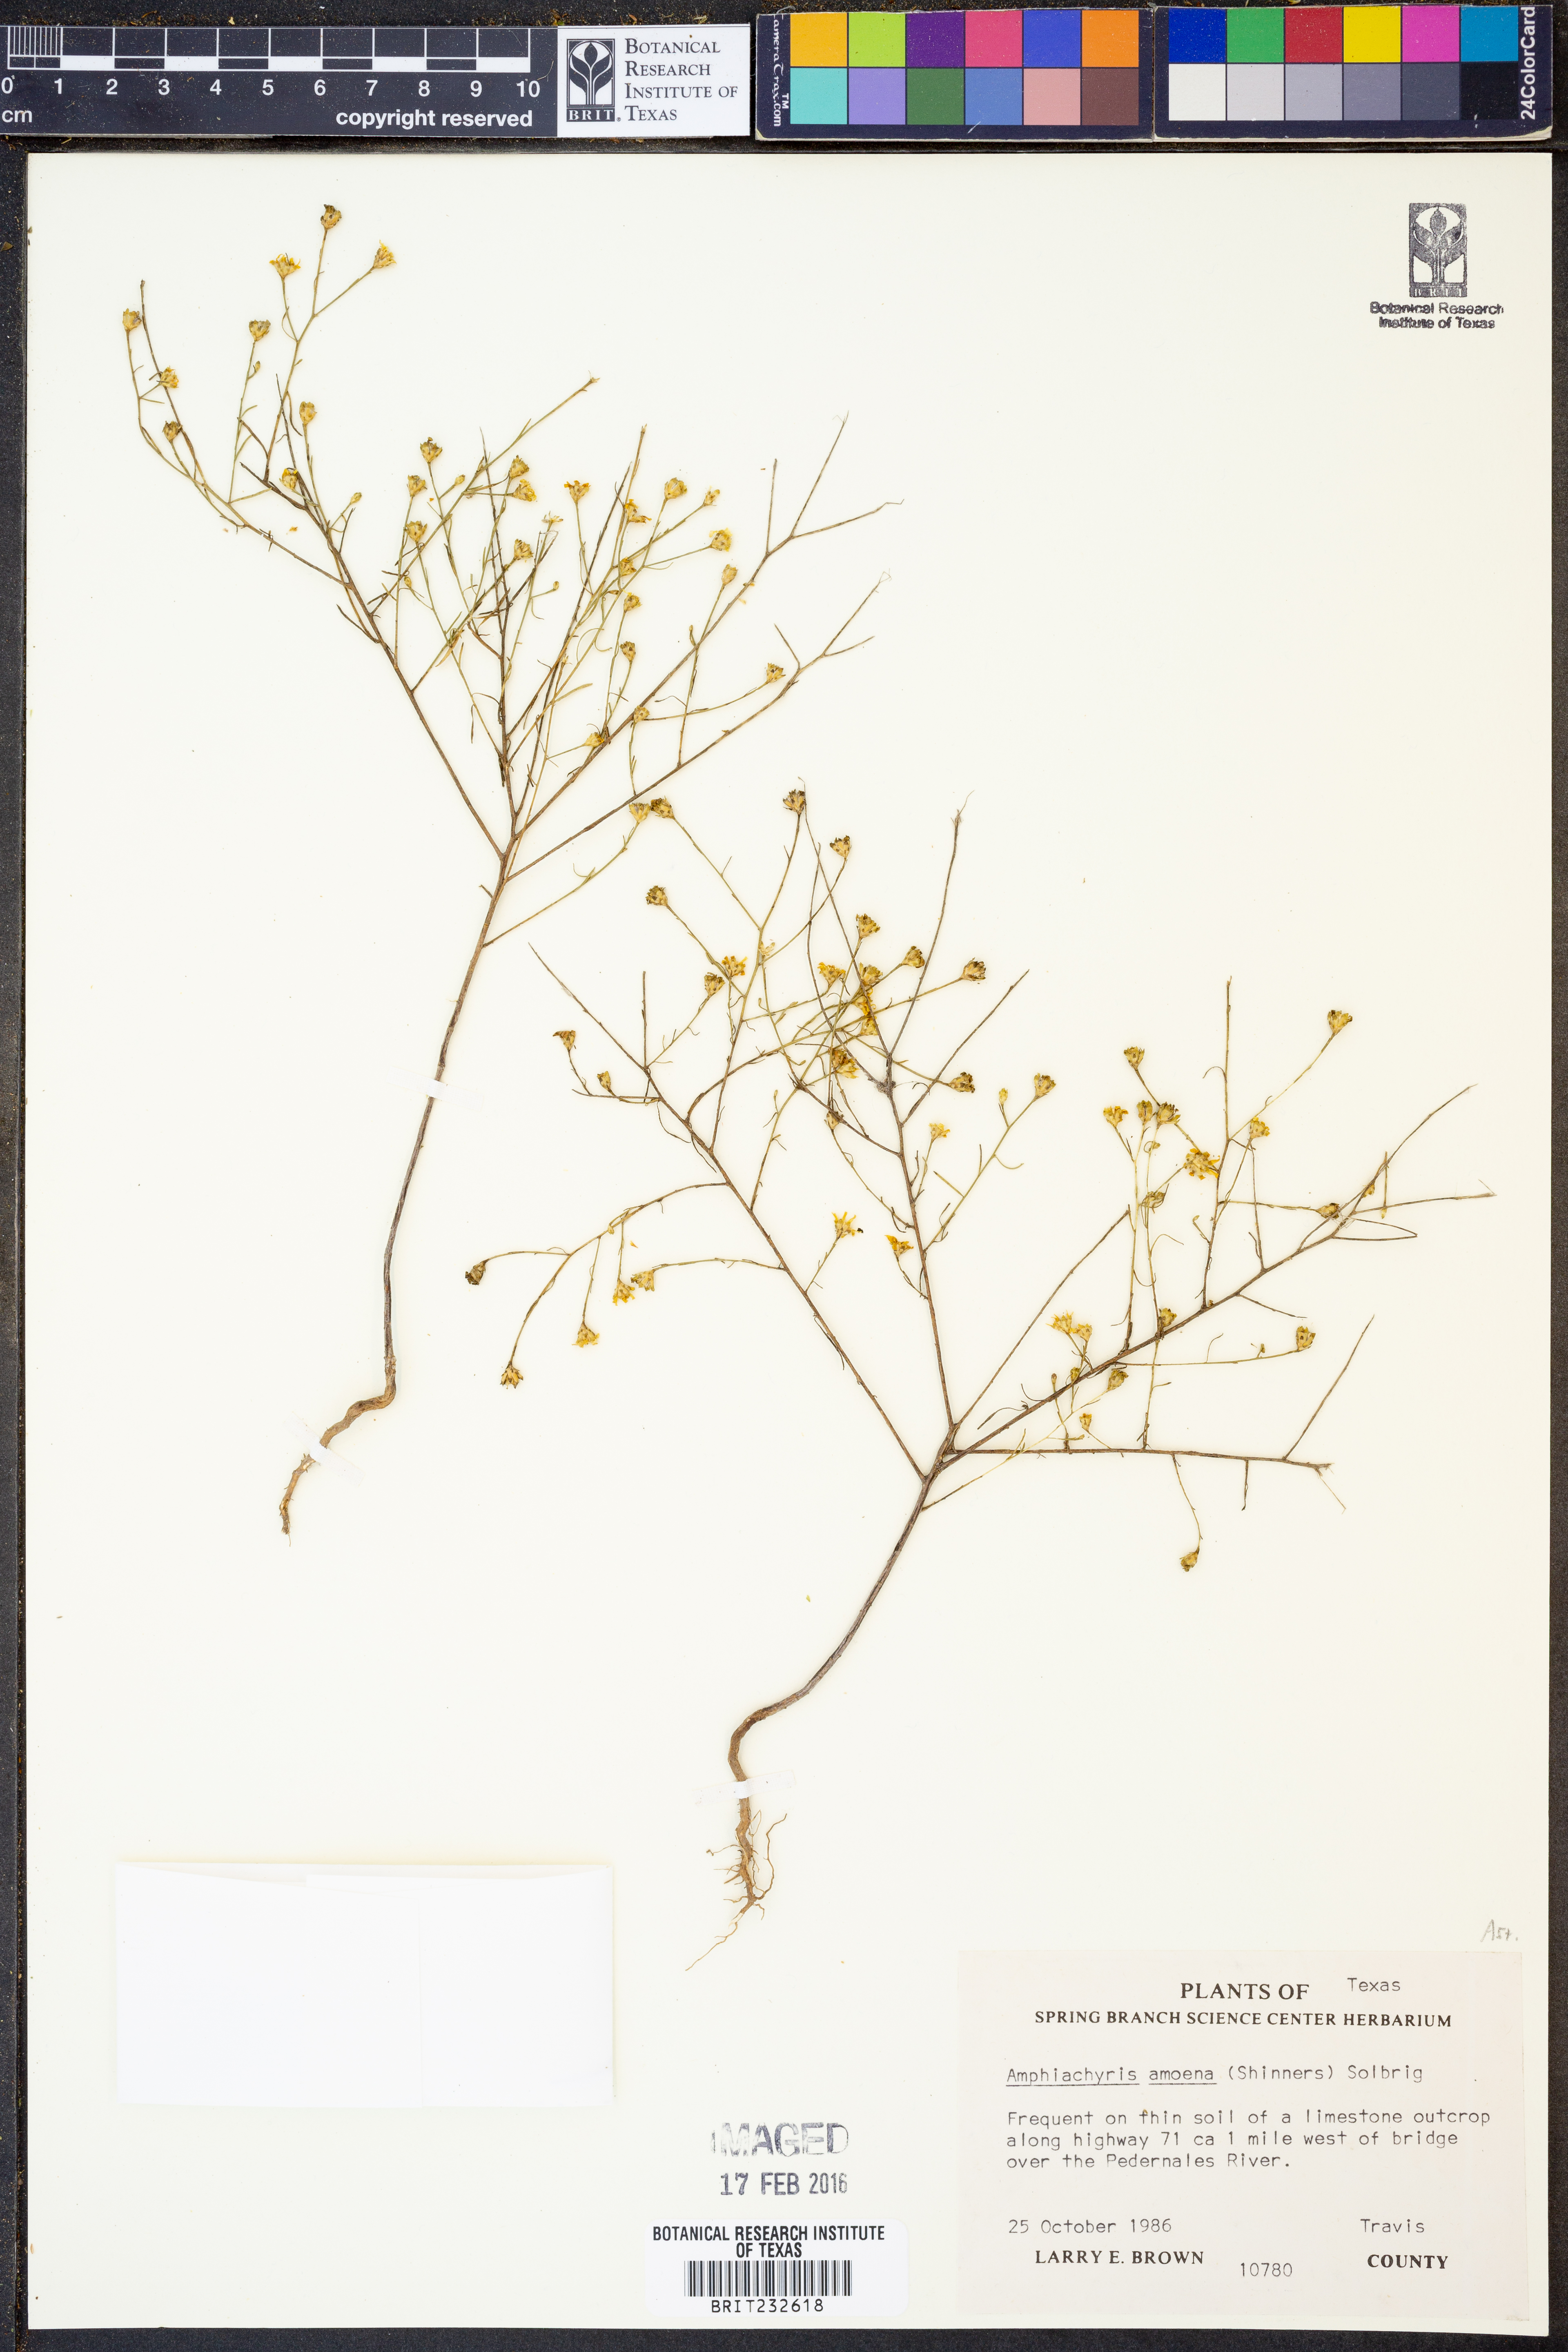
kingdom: Plantae
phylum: Tracheophyta
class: Magnoliopsida
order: Asterales
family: Asteraceae
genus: Amphiachyris
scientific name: Amphiachyris amoenum
